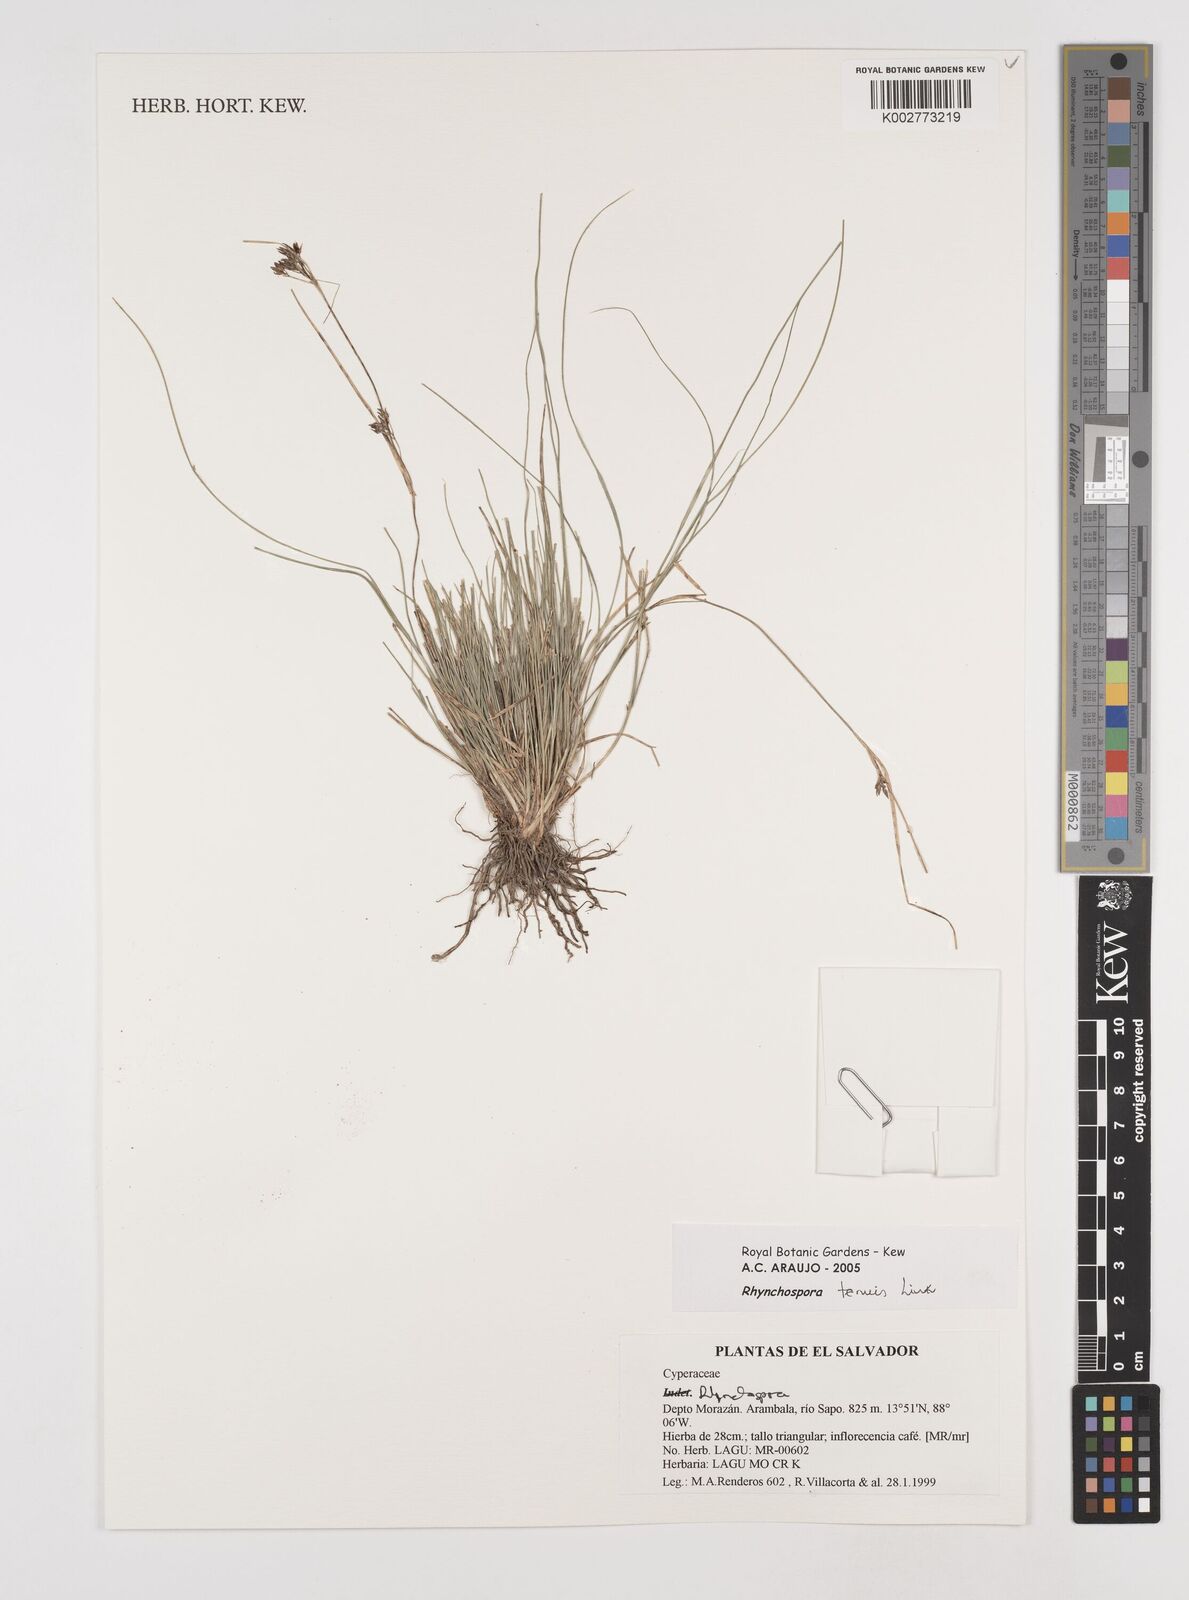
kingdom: Plantae
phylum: Tracheophyta
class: Liliopsida
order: Poales
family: Cyperaceae
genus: Rhynchospora
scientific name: Rhynchospora radicans
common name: Tropical whitetop
